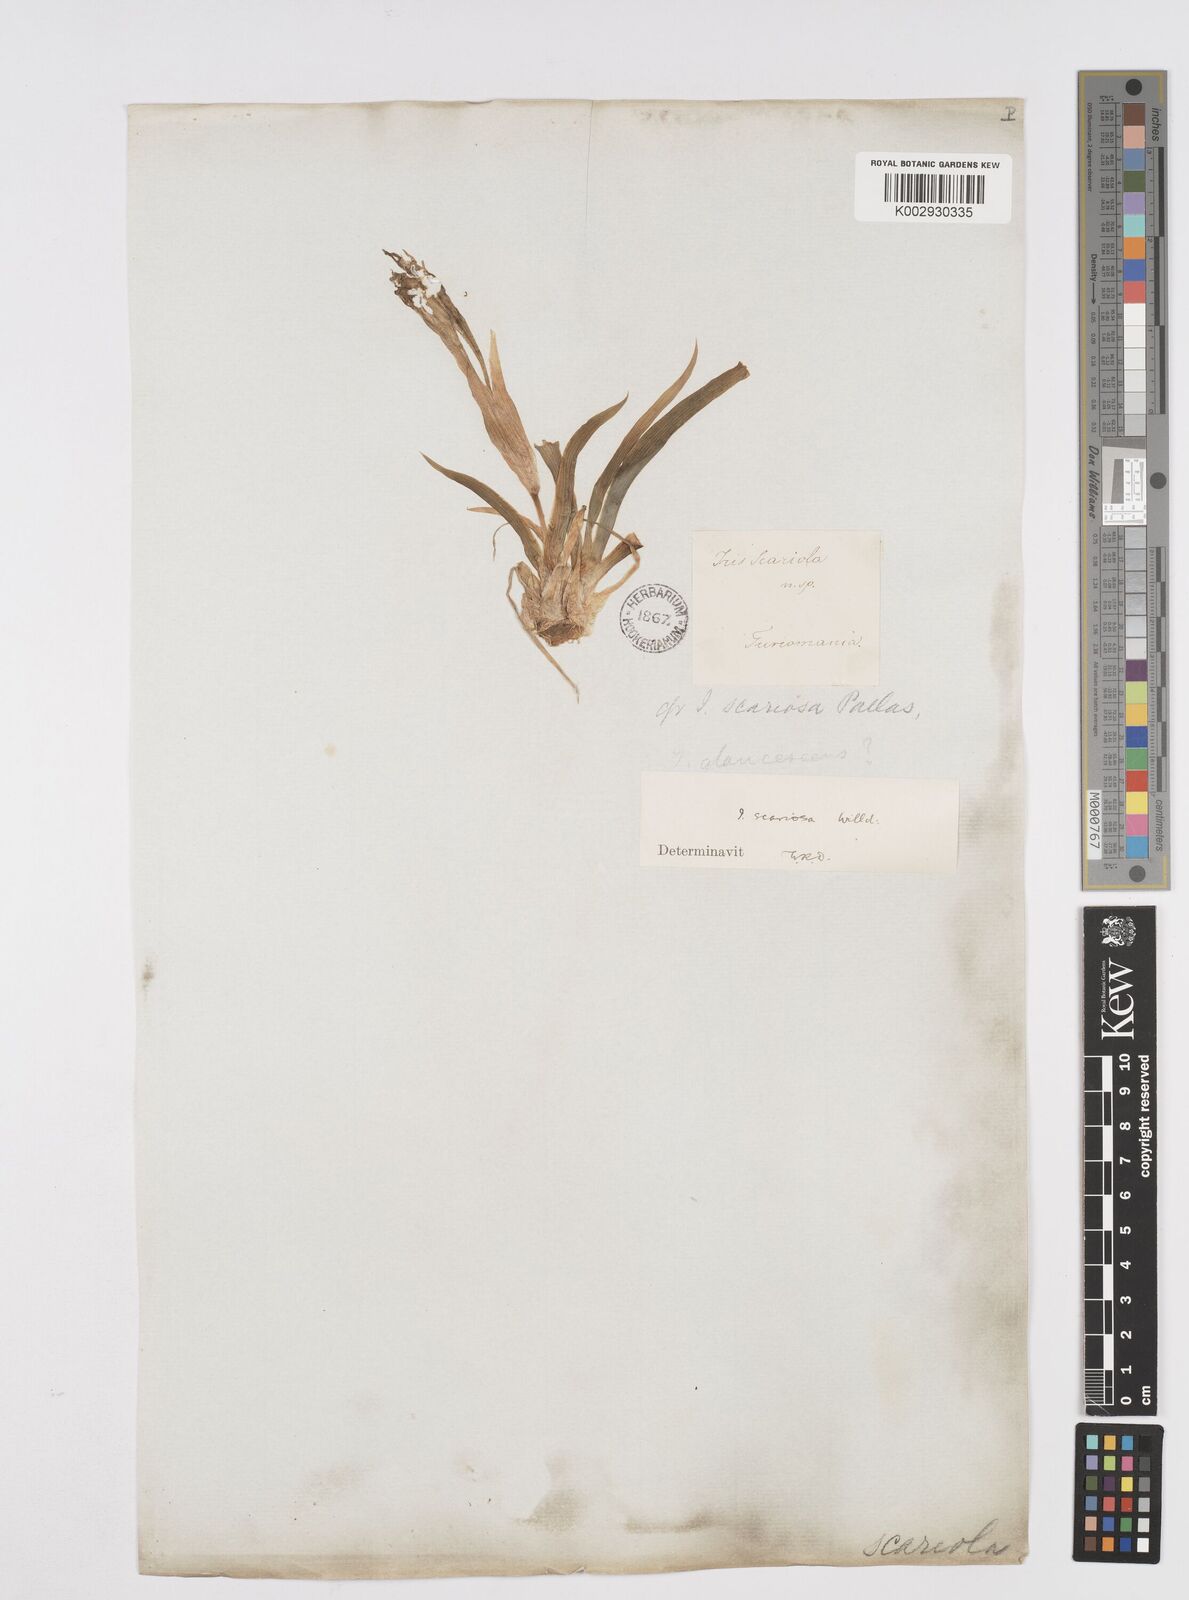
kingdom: Plantae
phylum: Tracheophyta
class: Liliopsida
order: Asparagales
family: Iridaceae
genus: Iris
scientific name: Iris scariosa
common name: Membrane-bract iris
